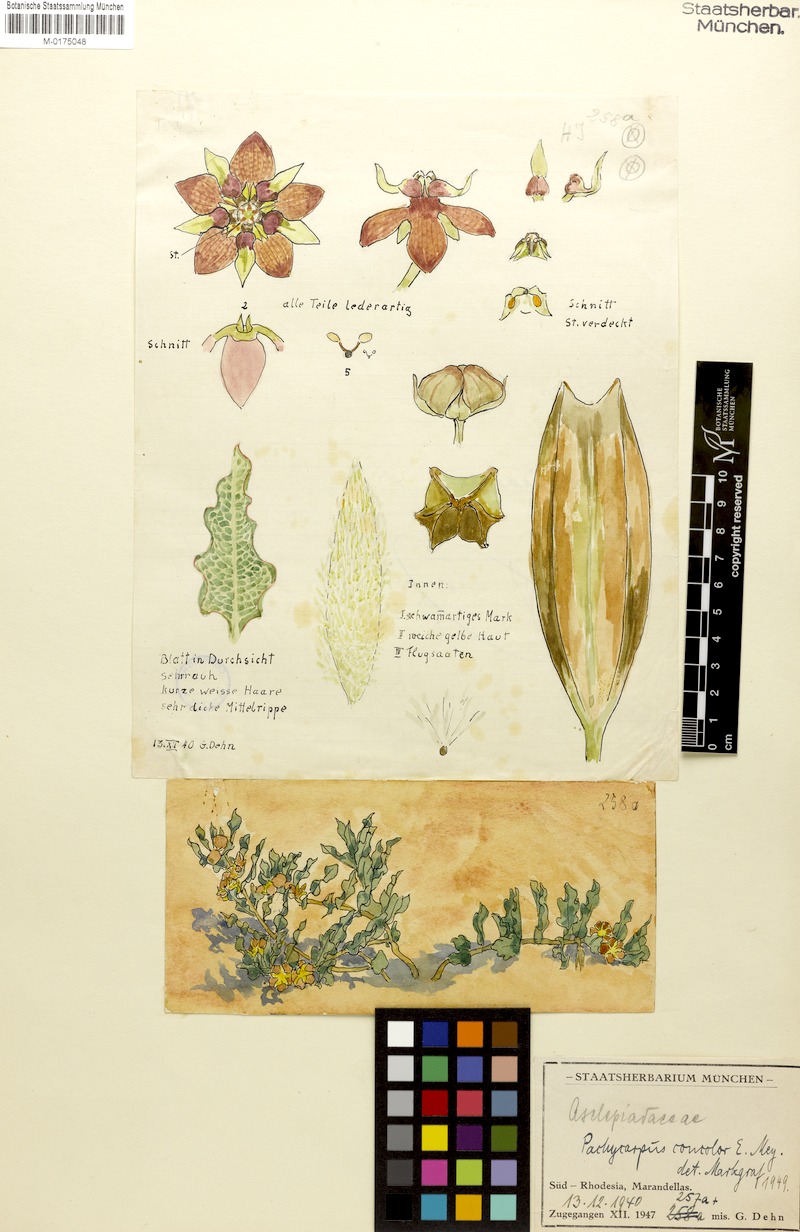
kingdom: Plantae
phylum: Tracheophyta
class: Magnoliopsida
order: Gentianales
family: Apocynaceae
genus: Pachycarpus
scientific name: Pachycarpus concolor
